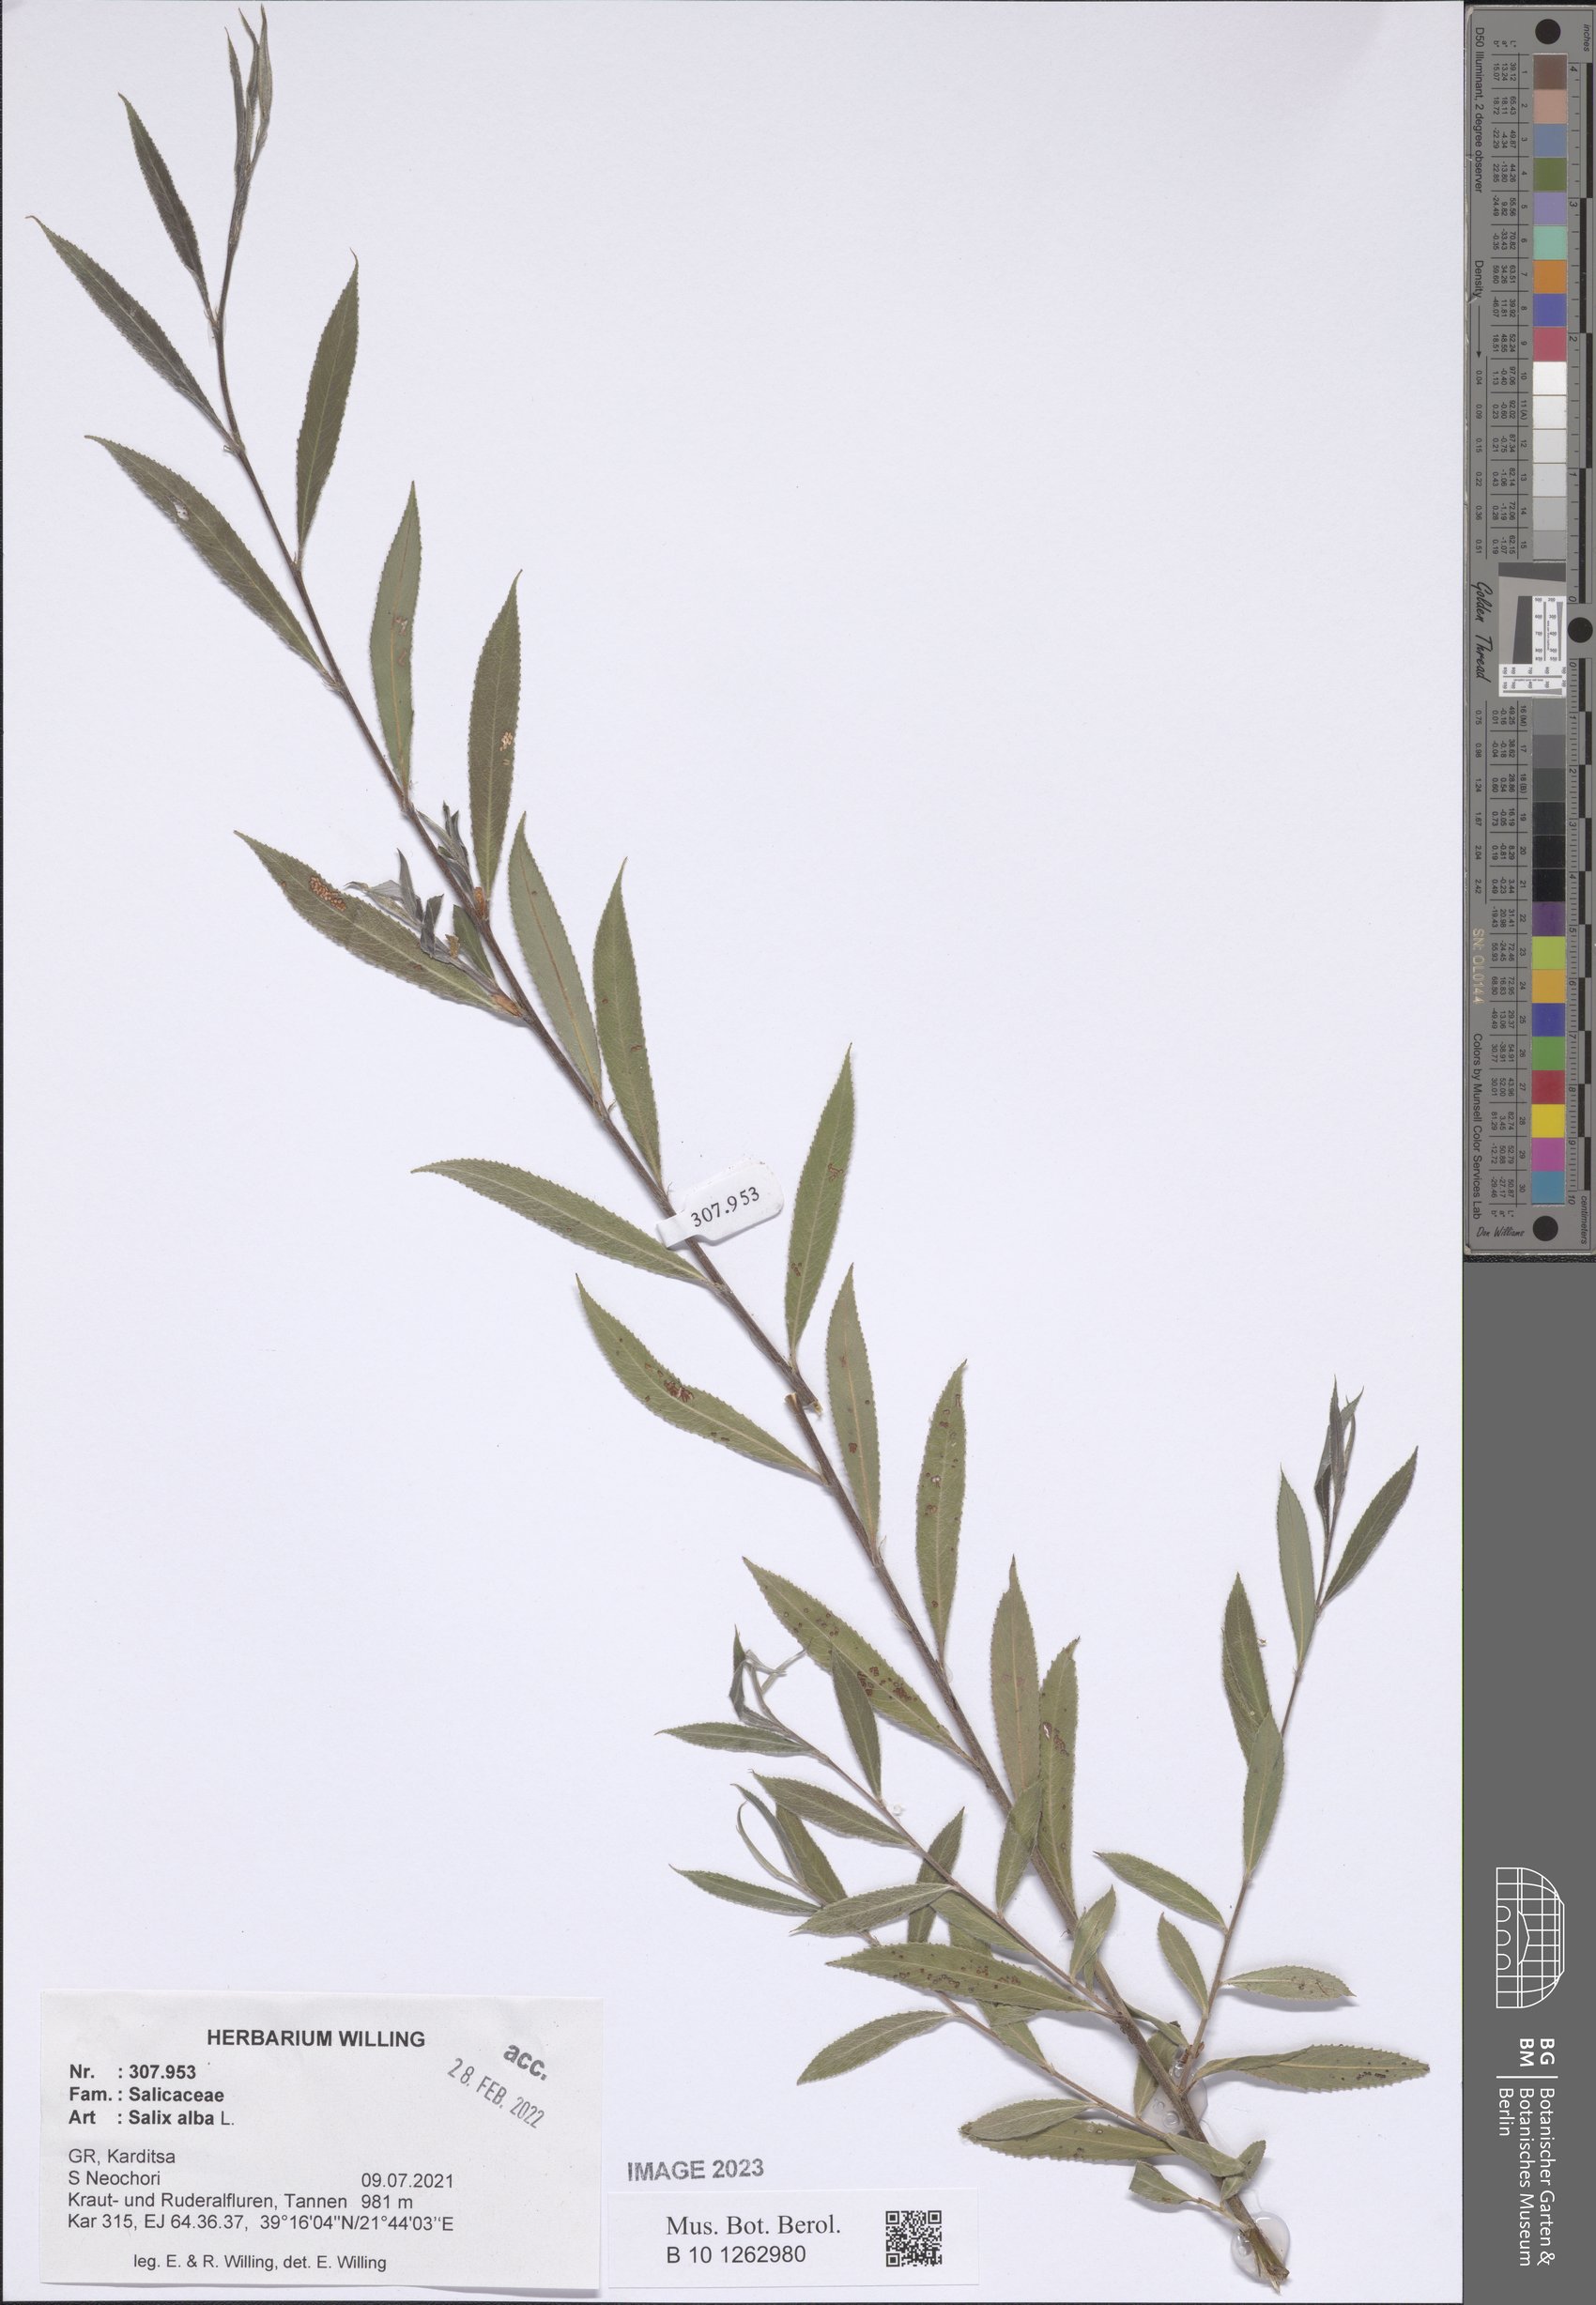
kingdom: Plantae
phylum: Tracheophyta
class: Magnoliopsida
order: Malpighiales
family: Salicaceae
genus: Salix
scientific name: Salix alba
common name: White willow
